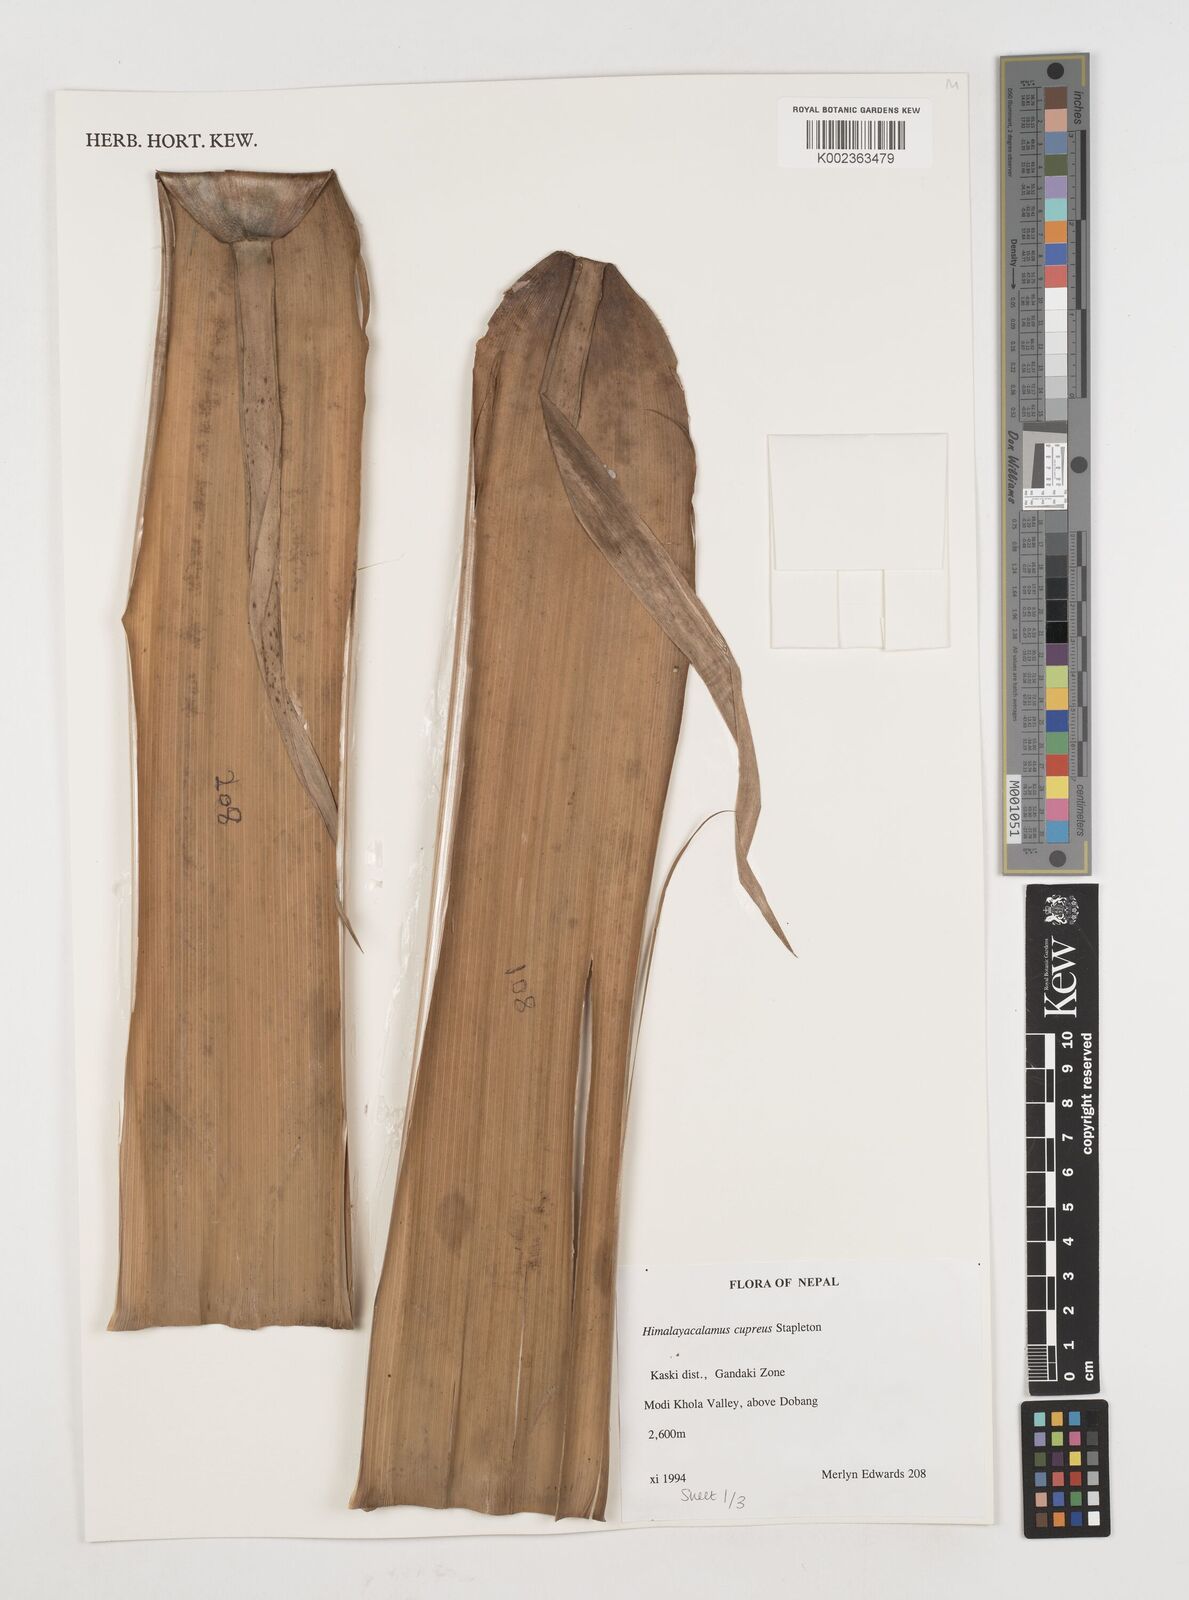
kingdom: Plantae
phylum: Tracheophyta
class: Liliopsida
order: Poales
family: Poaceae
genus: Himalayacalamus
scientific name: Himalayacalamus cupreus
